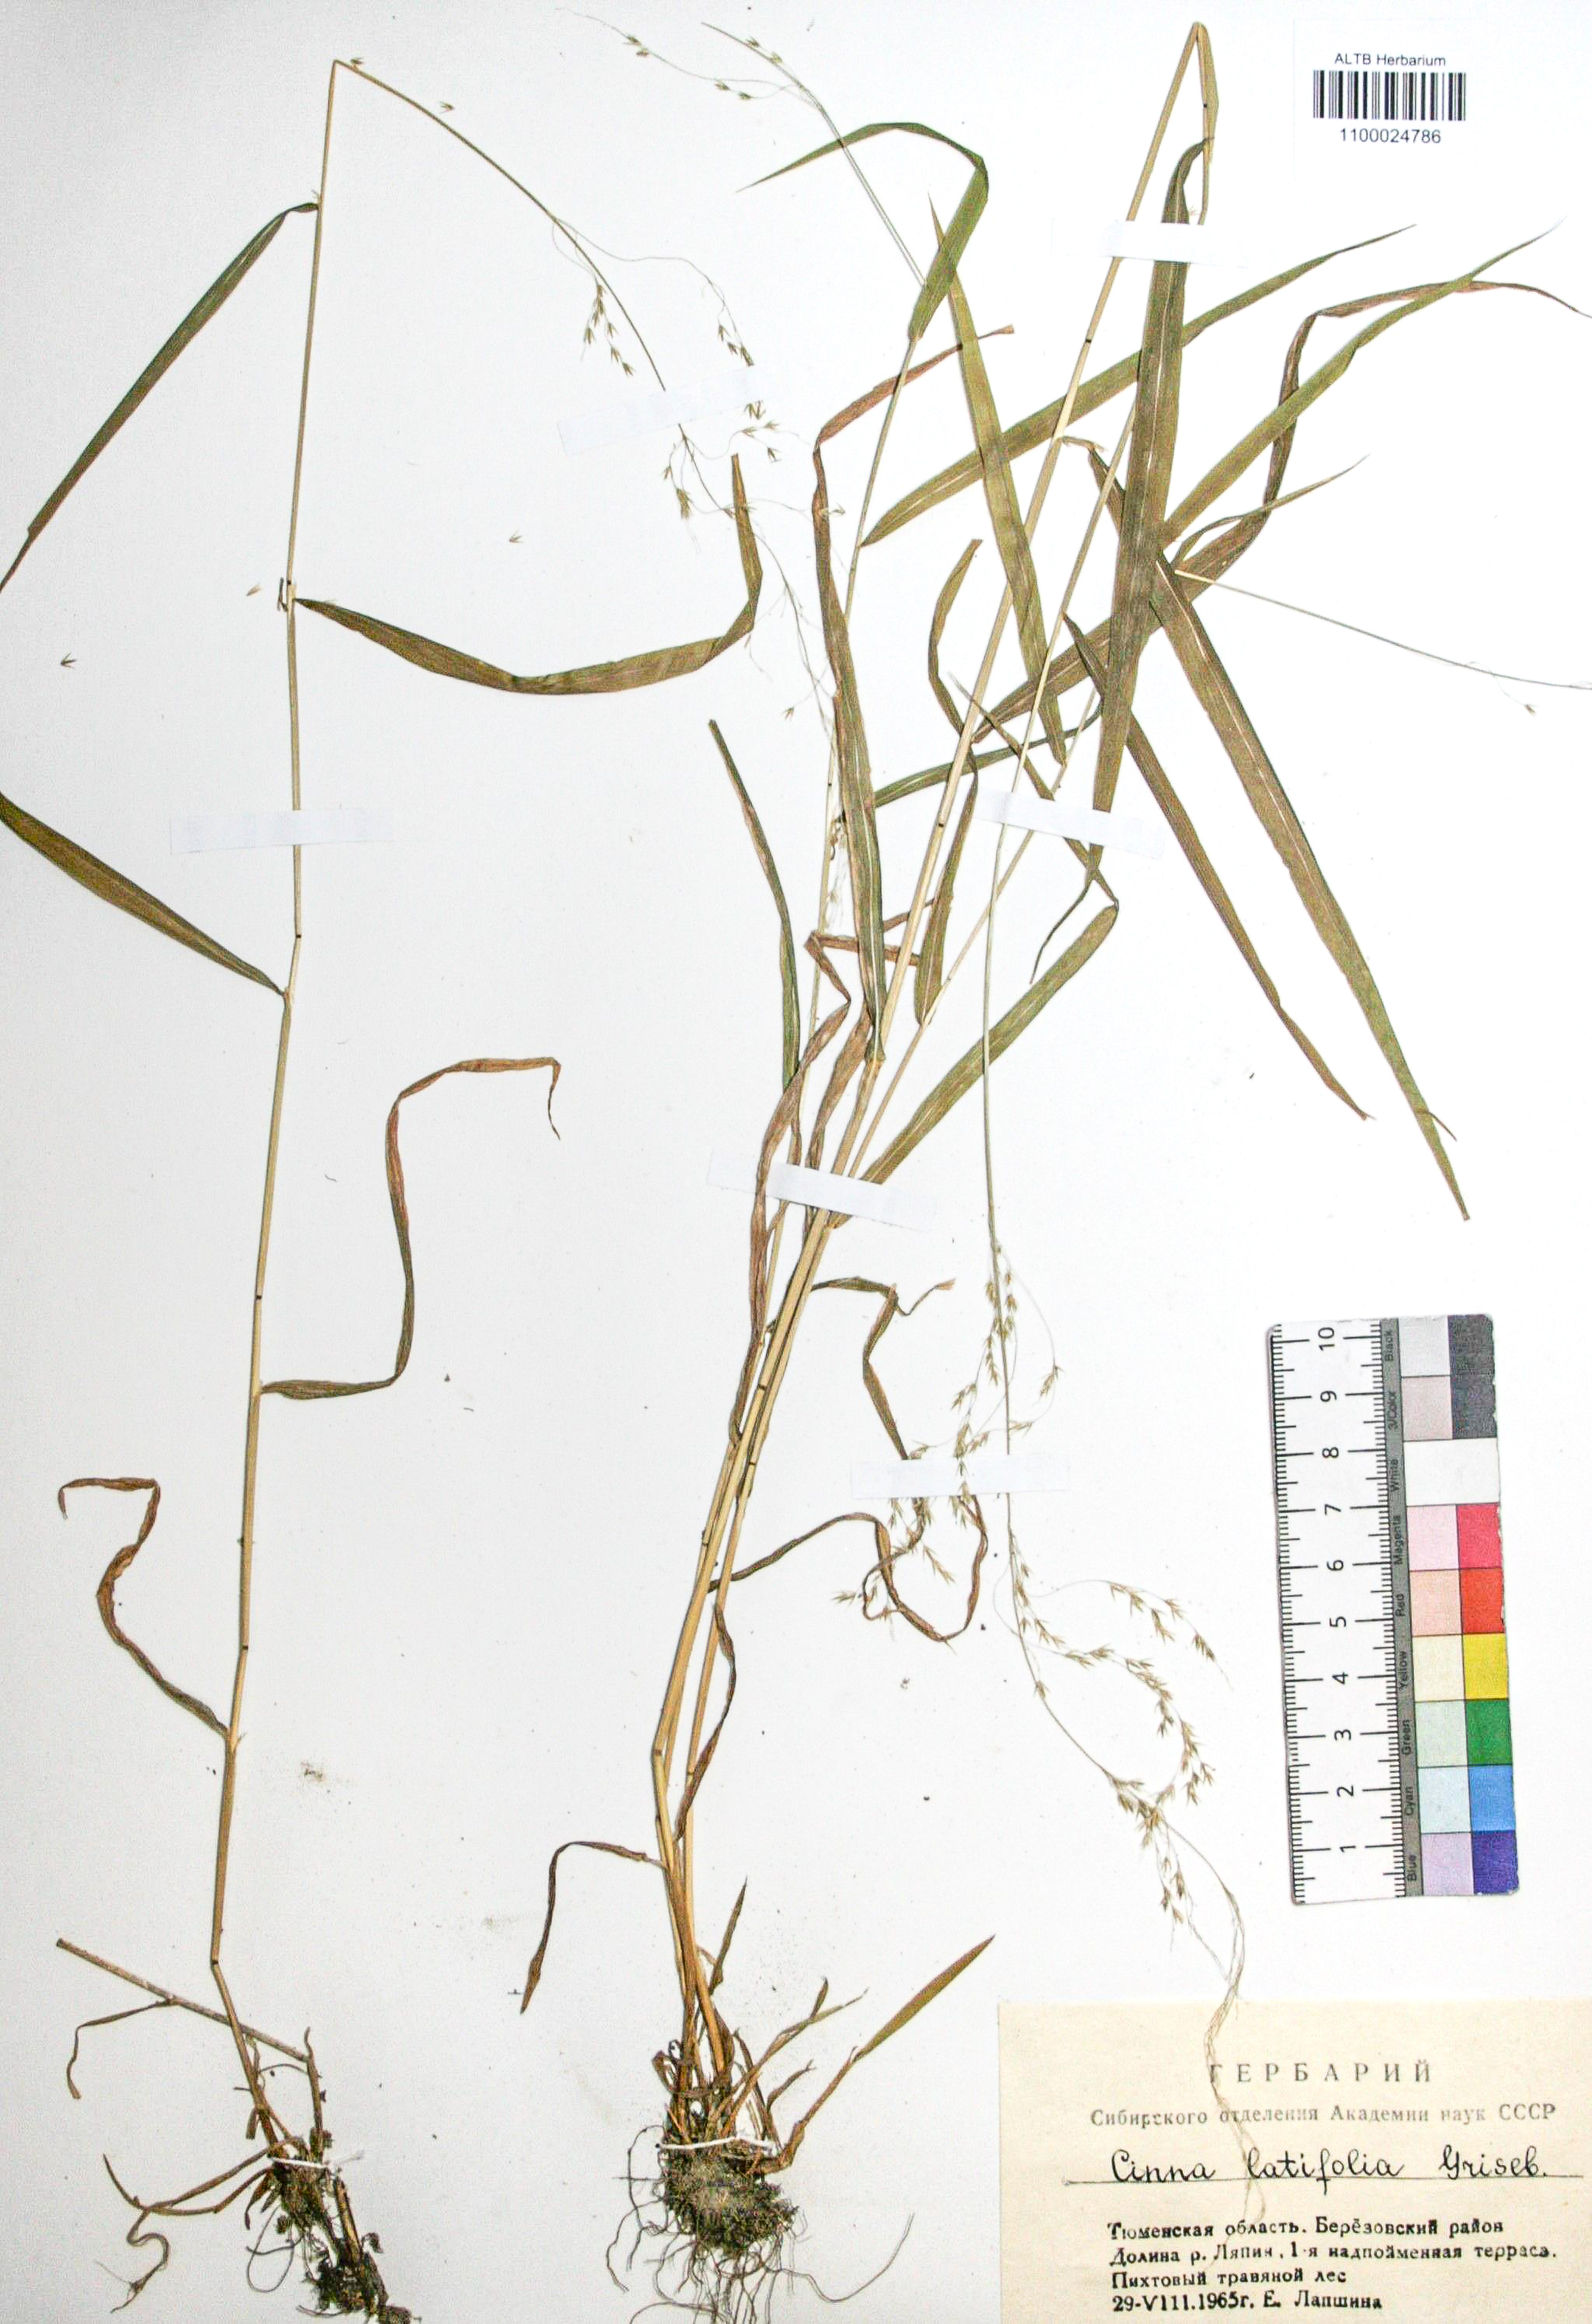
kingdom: Plantae
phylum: Tracheophyta
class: Liliopsida
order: Poales
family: Poaceae
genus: Cinna
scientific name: Cinna latifolia
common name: Drooping woodreed
